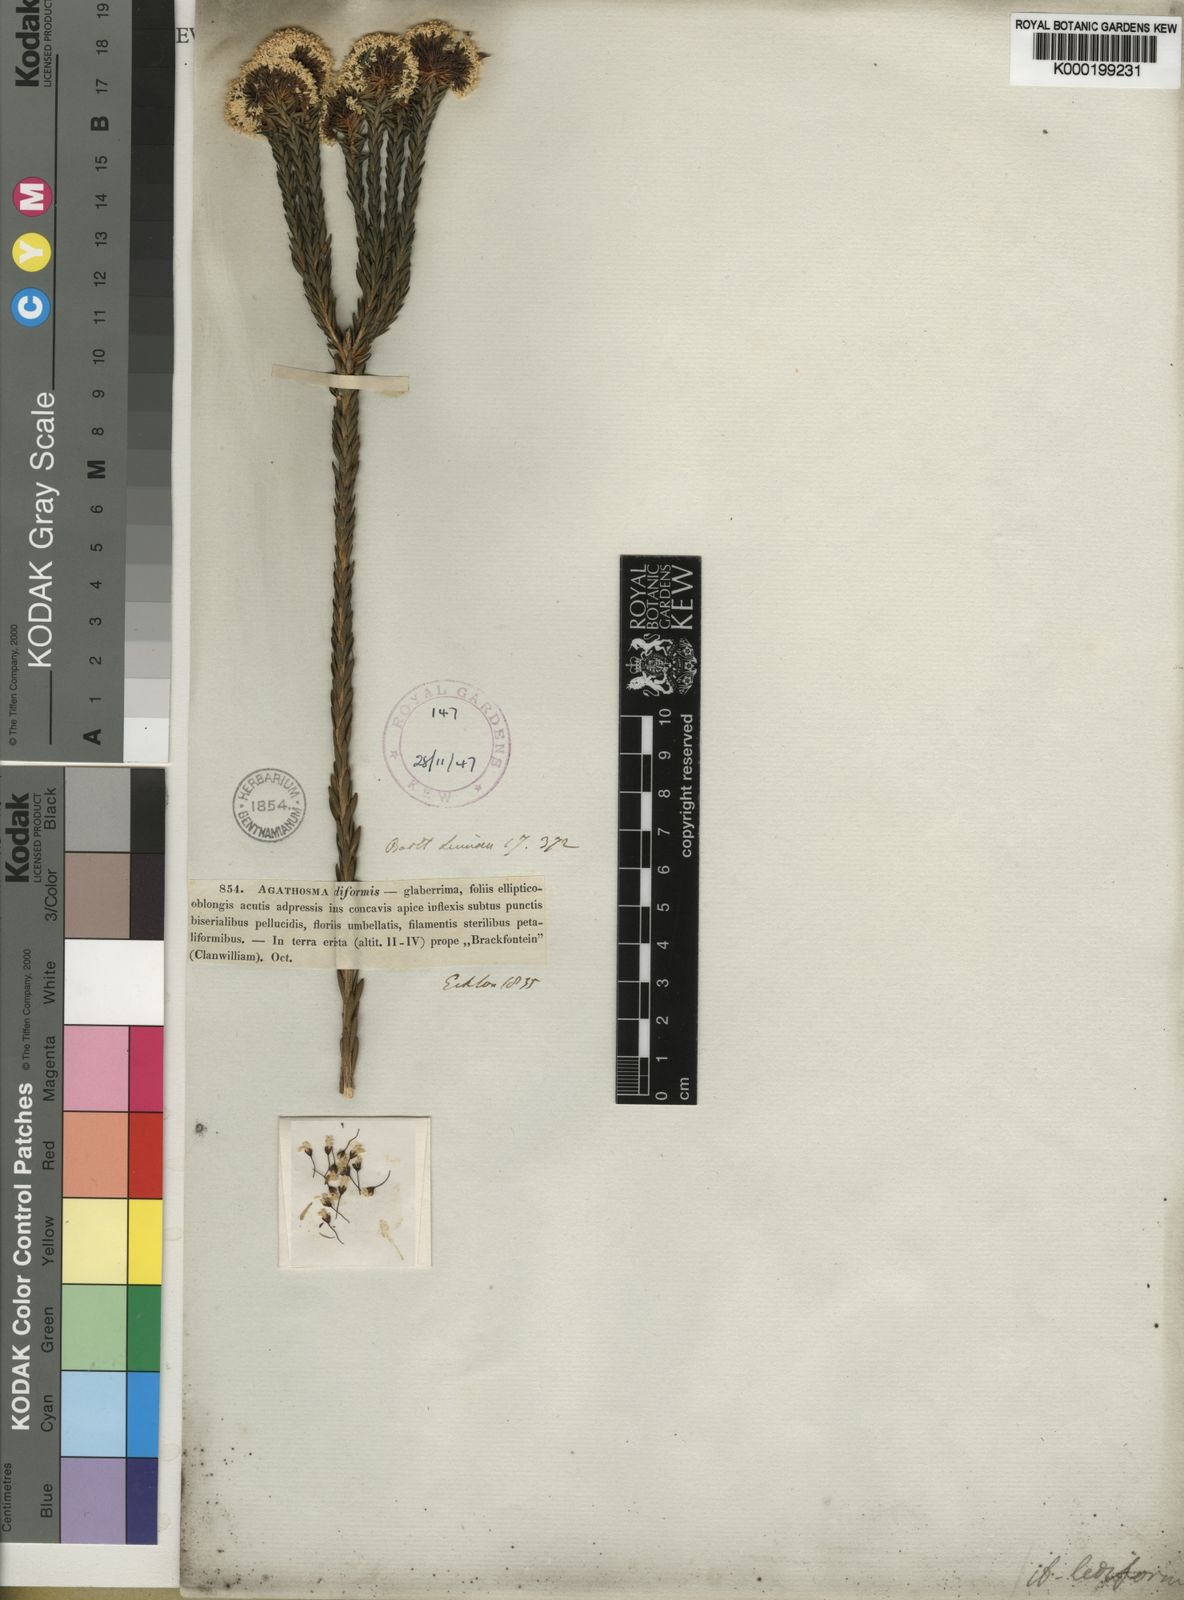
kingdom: Plantae
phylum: Tracheophyta
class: Magnoliopsida
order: Sapindales
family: Rutaceae
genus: Agathosma
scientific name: Agathosma bifida
